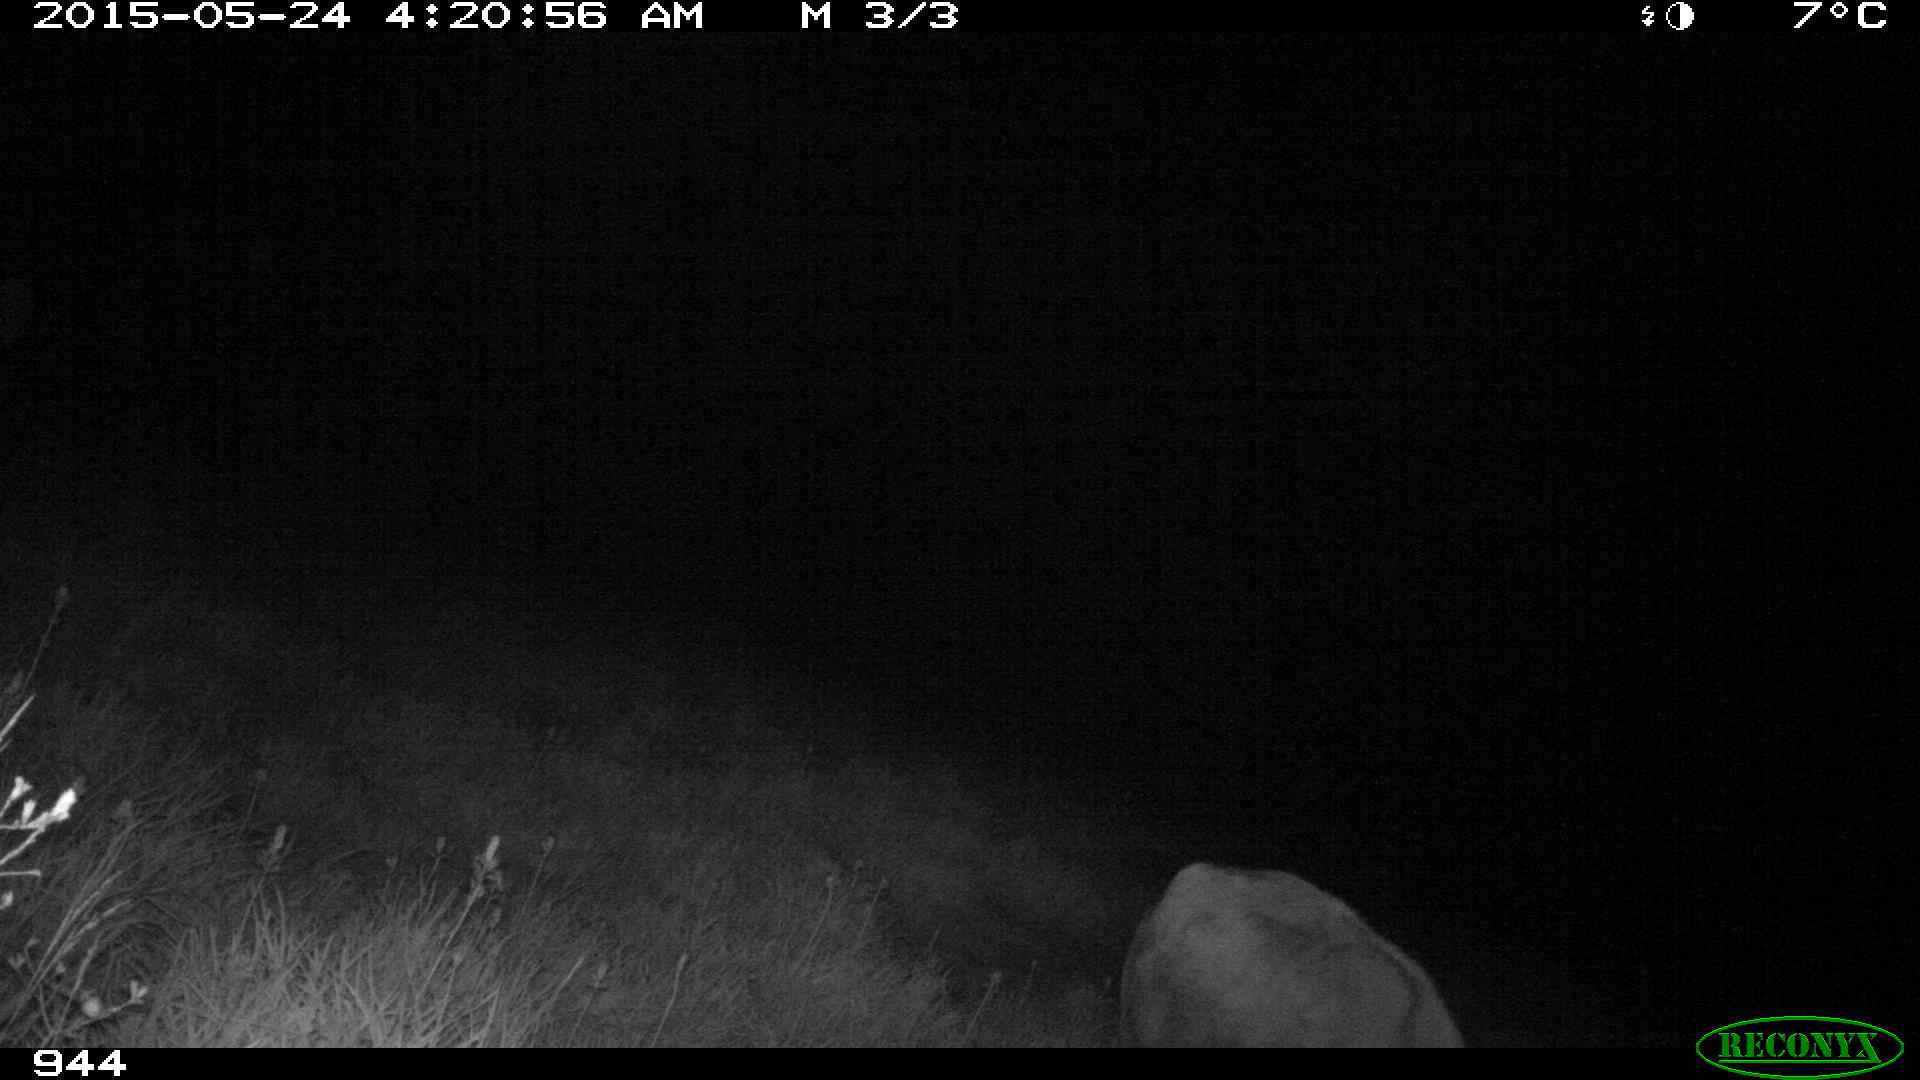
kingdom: Animalia
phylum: Chordata
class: Mammalia
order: Artiodactyla
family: Bovidae
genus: Bos
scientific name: Bos taurus
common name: Domesticated cattle
